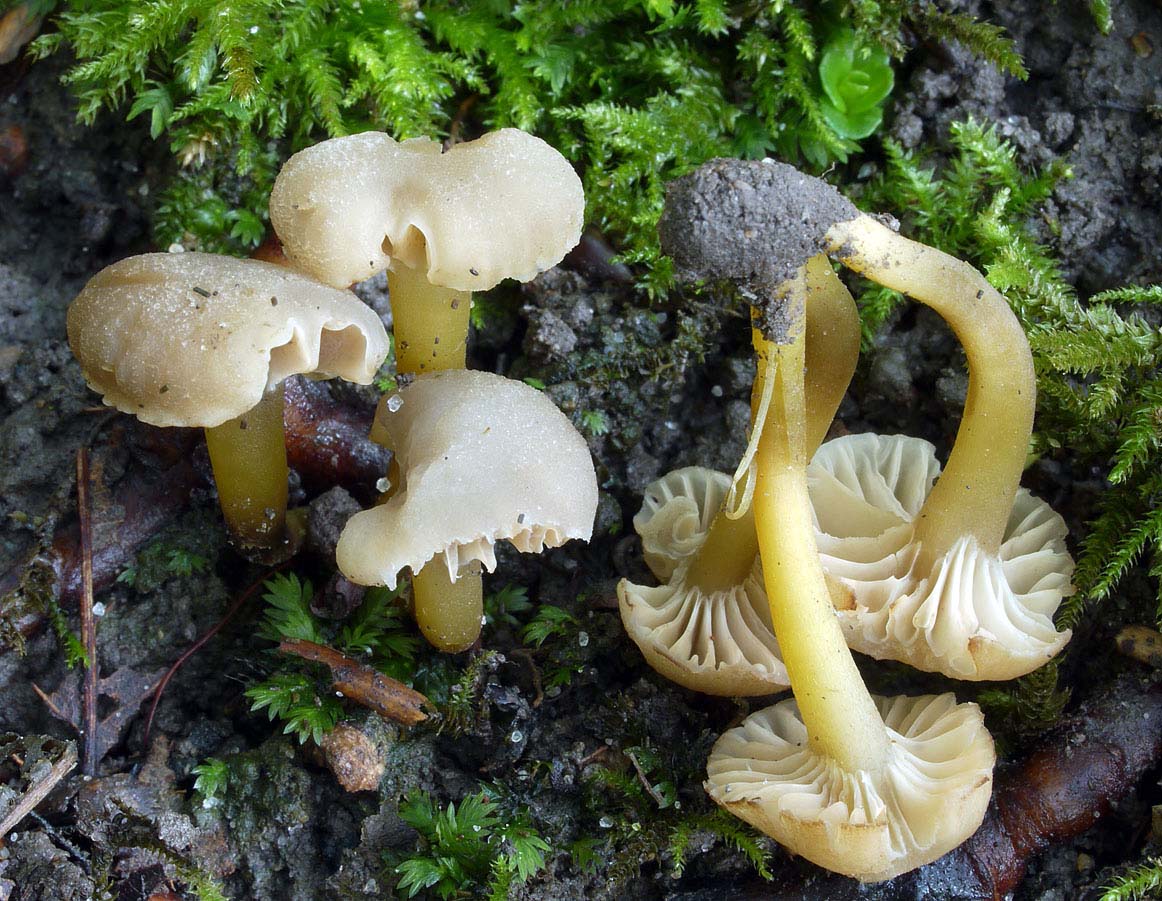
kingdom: Fungi
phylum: Basidiomycota
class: Agaricomycetes
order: Agaricales
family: Clavariaceae
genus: Hodophilus
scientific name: Hodophilus micaceus
